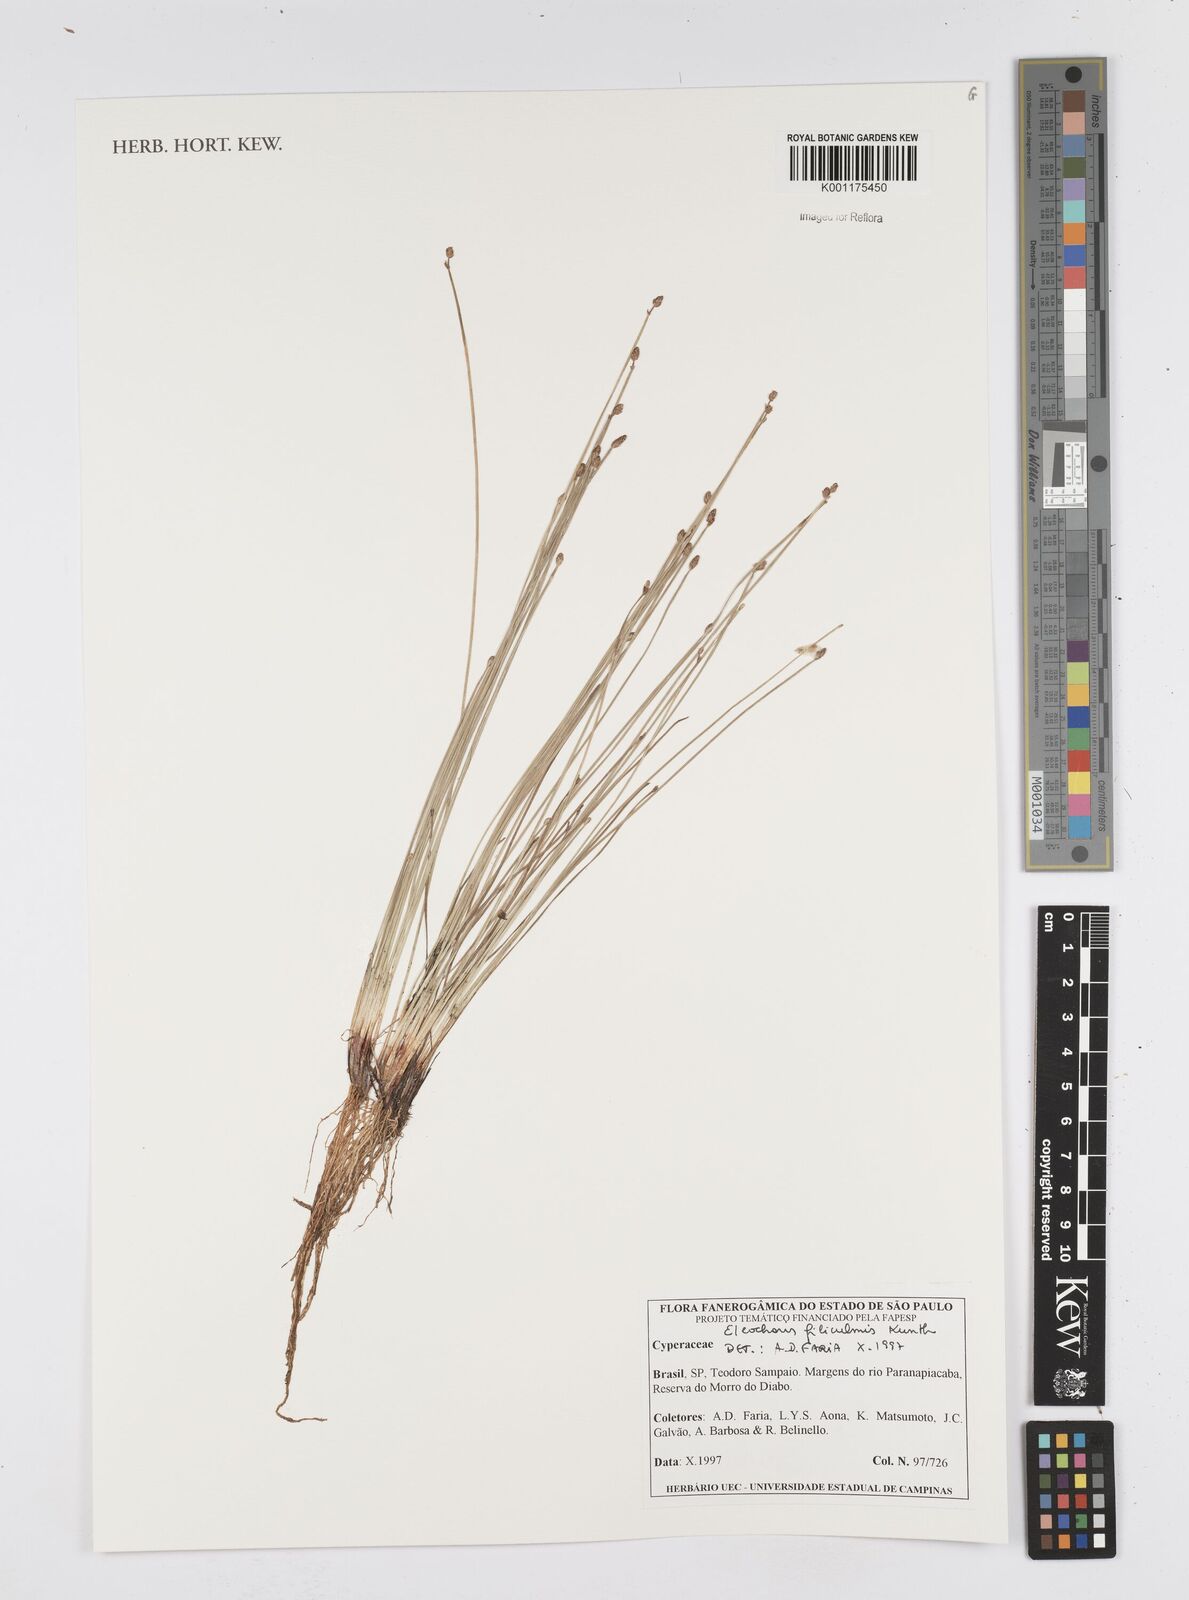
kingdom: Plantae
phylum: Tracheophyta
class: Liliopsida
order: Poales
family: Cyperaceae
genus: Eleocharis
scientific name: Eleocharis filiculmis
